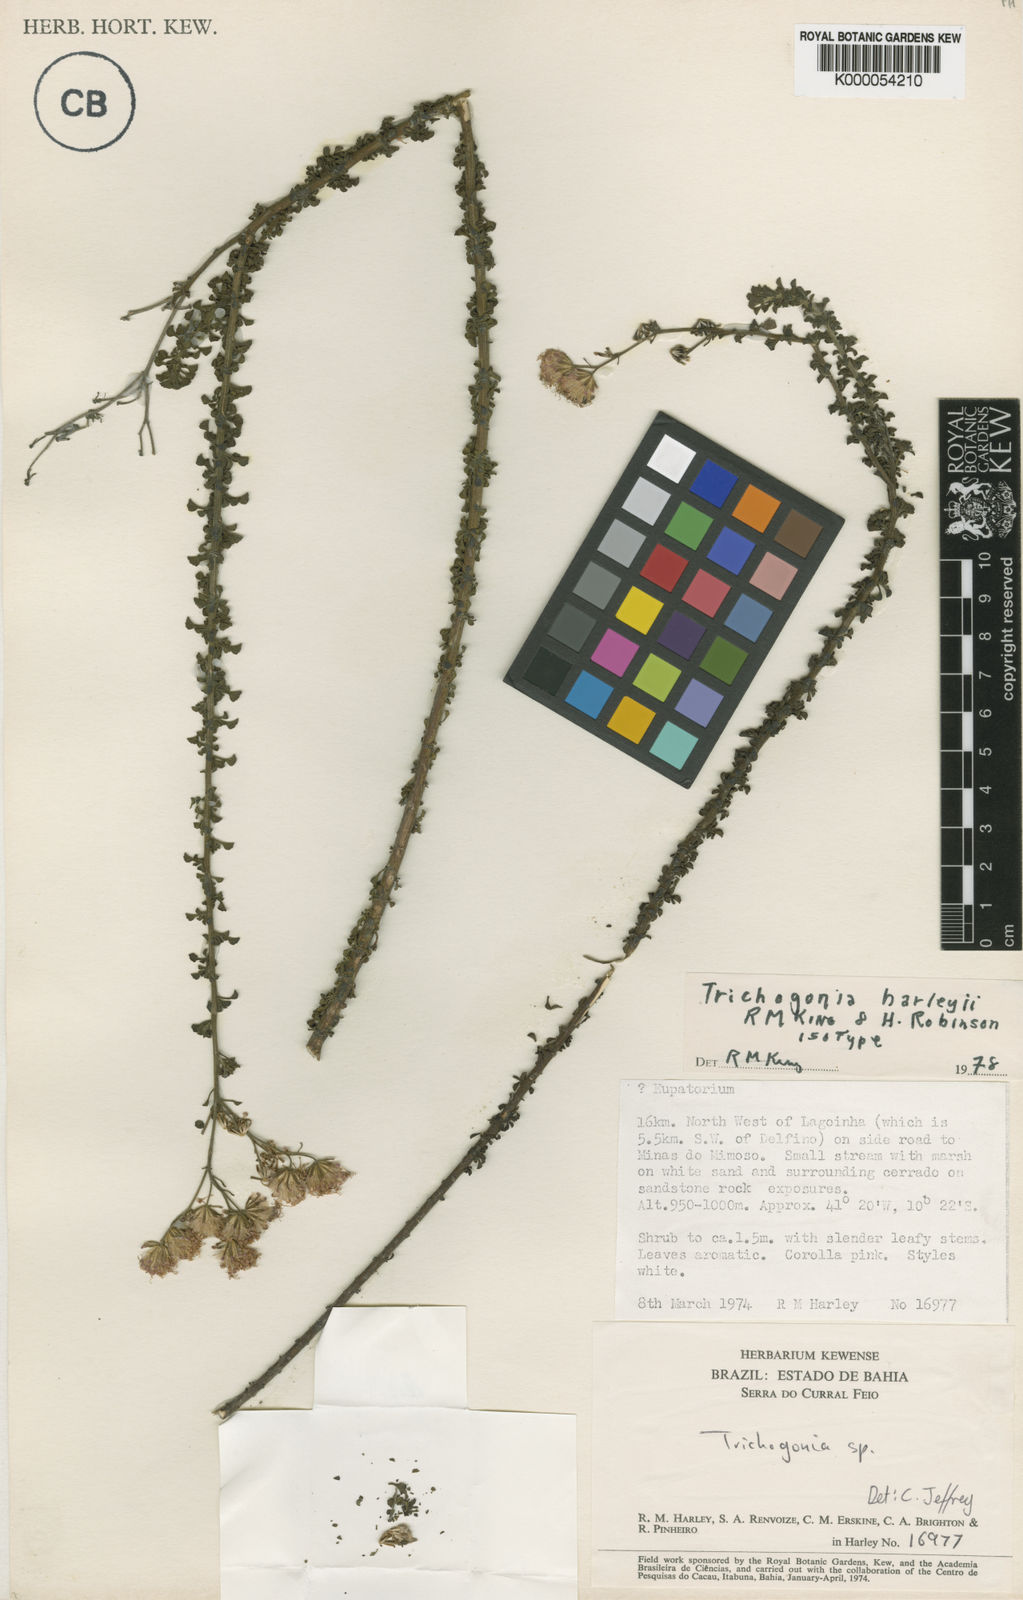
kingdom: Plantae
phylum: Tracheophyta
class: Magnoliopsida
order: Asterales
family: Asteraceae
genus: Trichogonia
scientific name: Trichogonia harleyi
